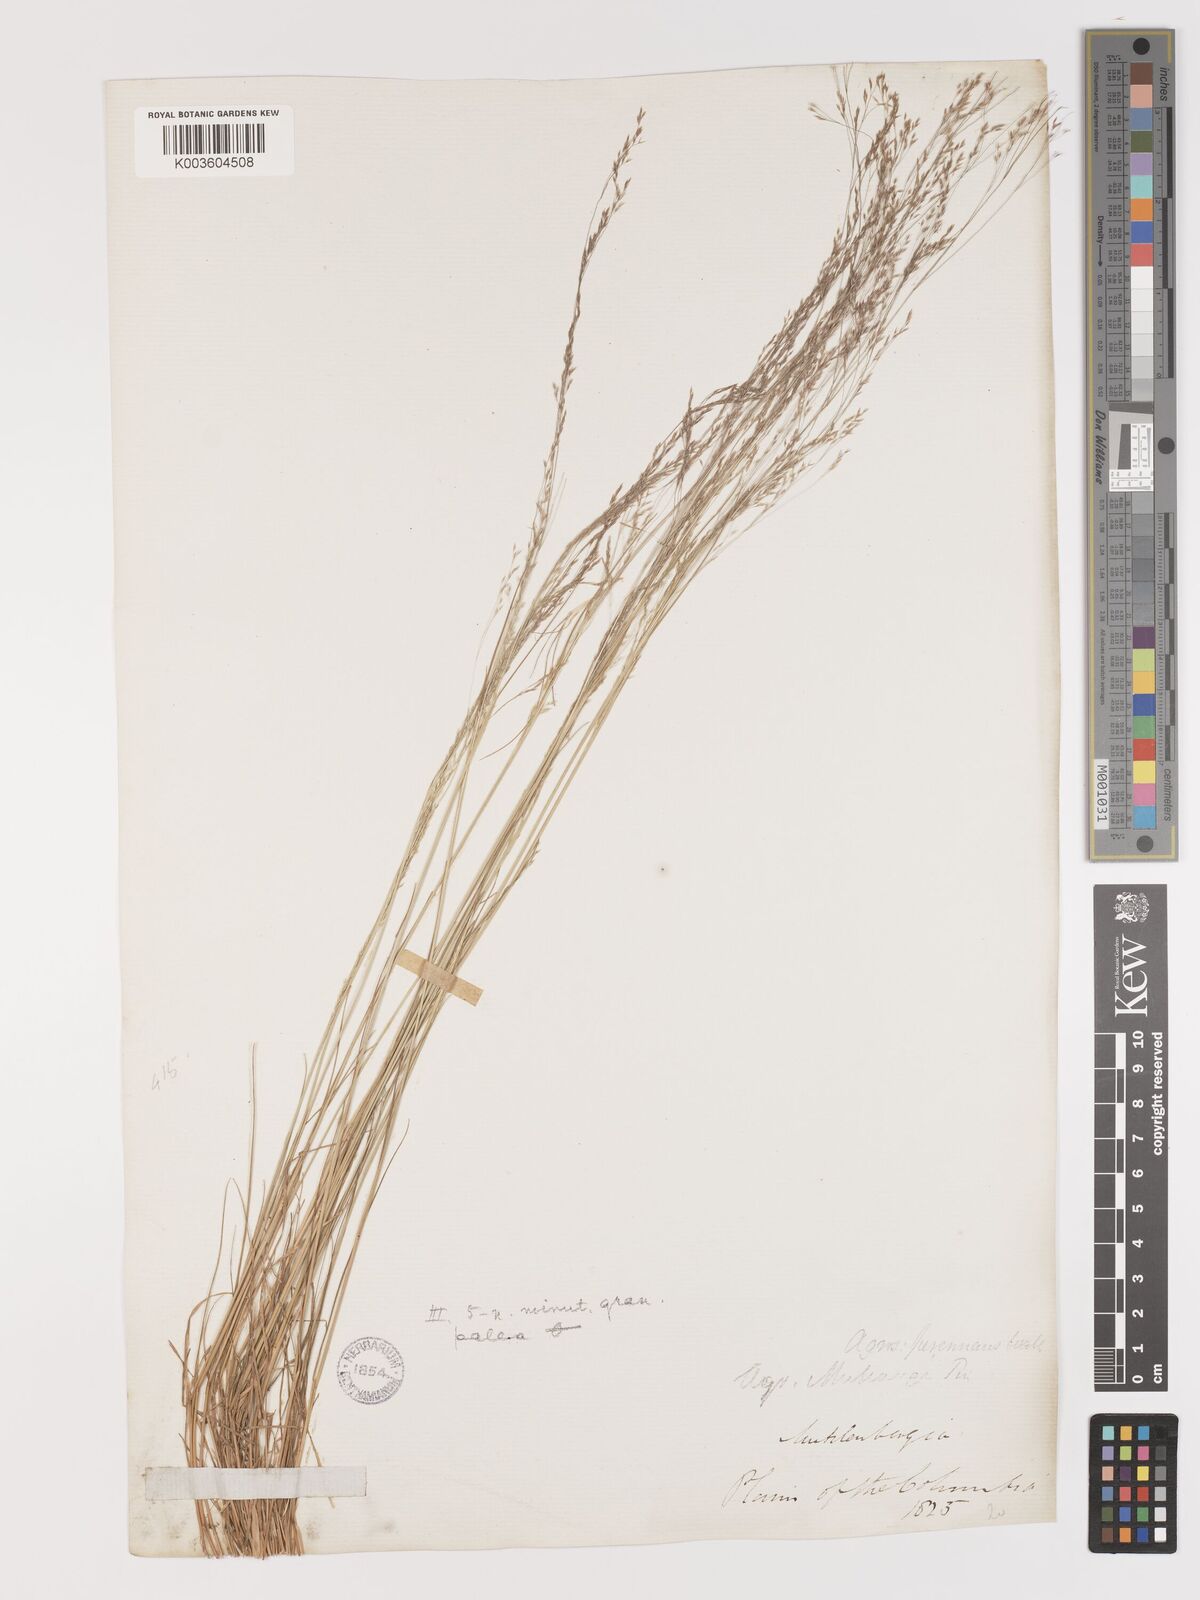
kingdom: Plantae
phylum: Tracheophyta
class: Liliopsida
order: Poales
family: Poaceae
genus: Agrostis
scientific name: Agrostis hyemalis
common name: Small bent
